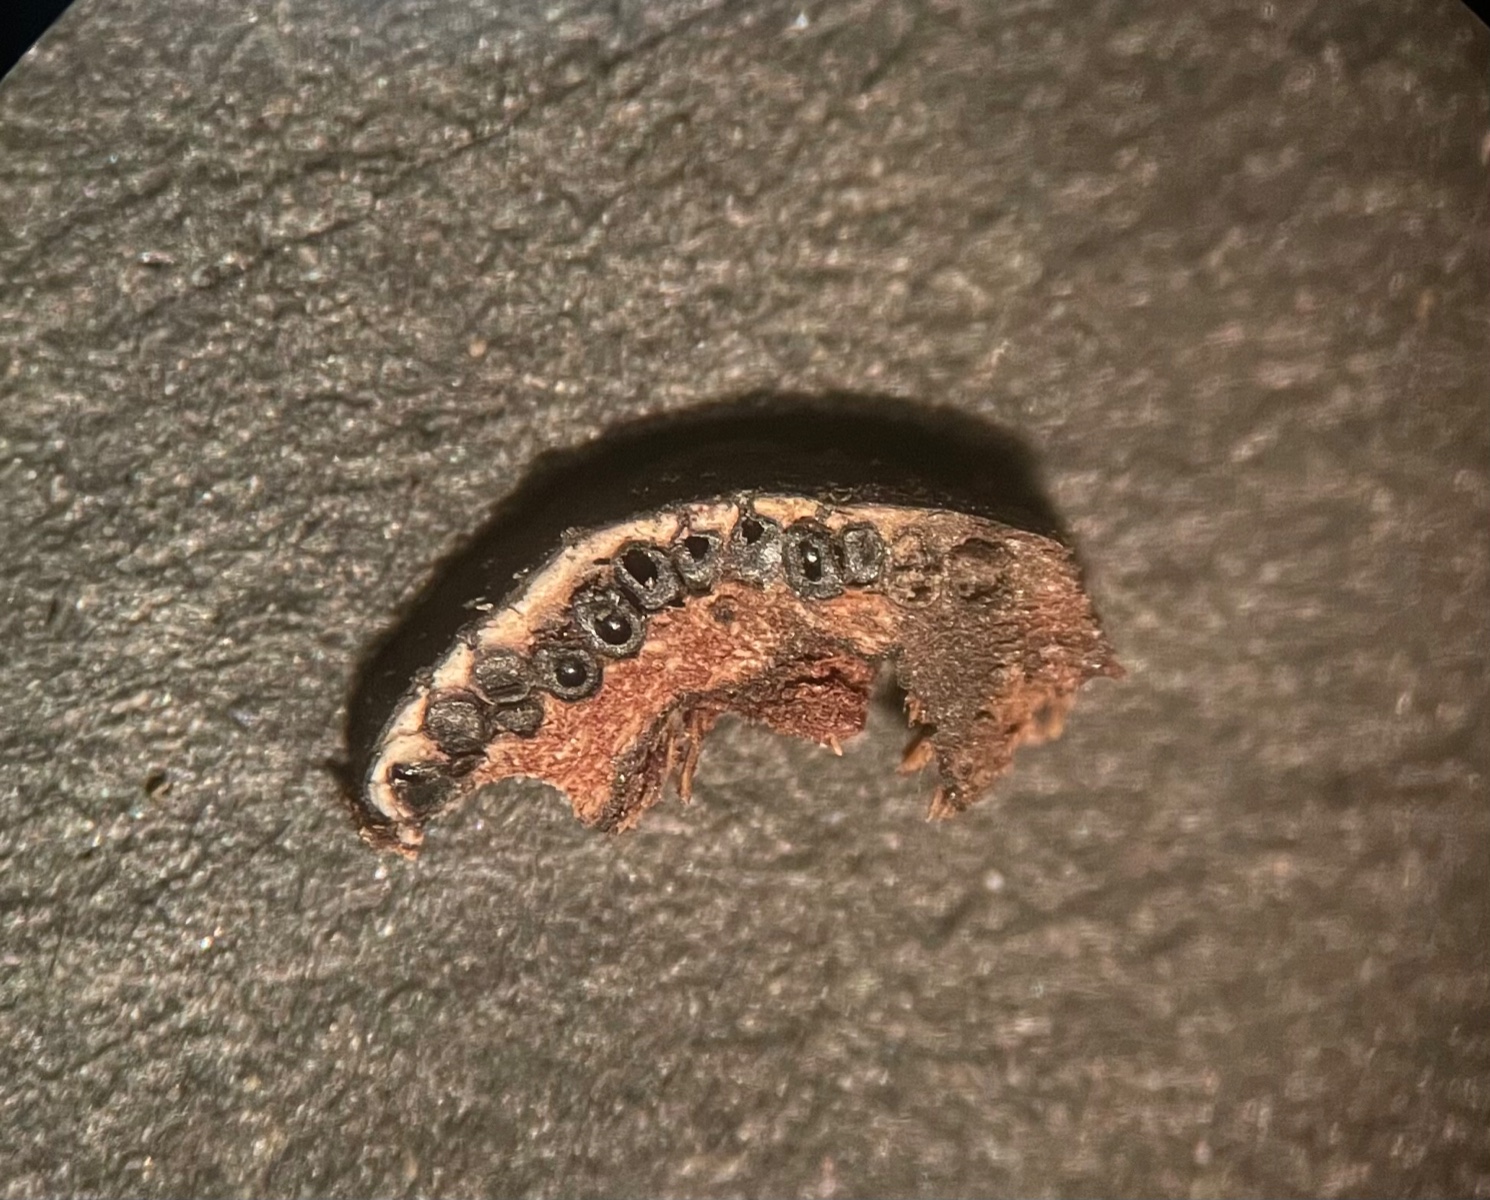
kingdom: Fungi
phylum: Ascomycota
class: Sordariomycetes
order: Xylariales
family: Diatrypaceae
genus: Diatrype
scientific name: Diatrype bullata
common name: pile-kulskorpe
